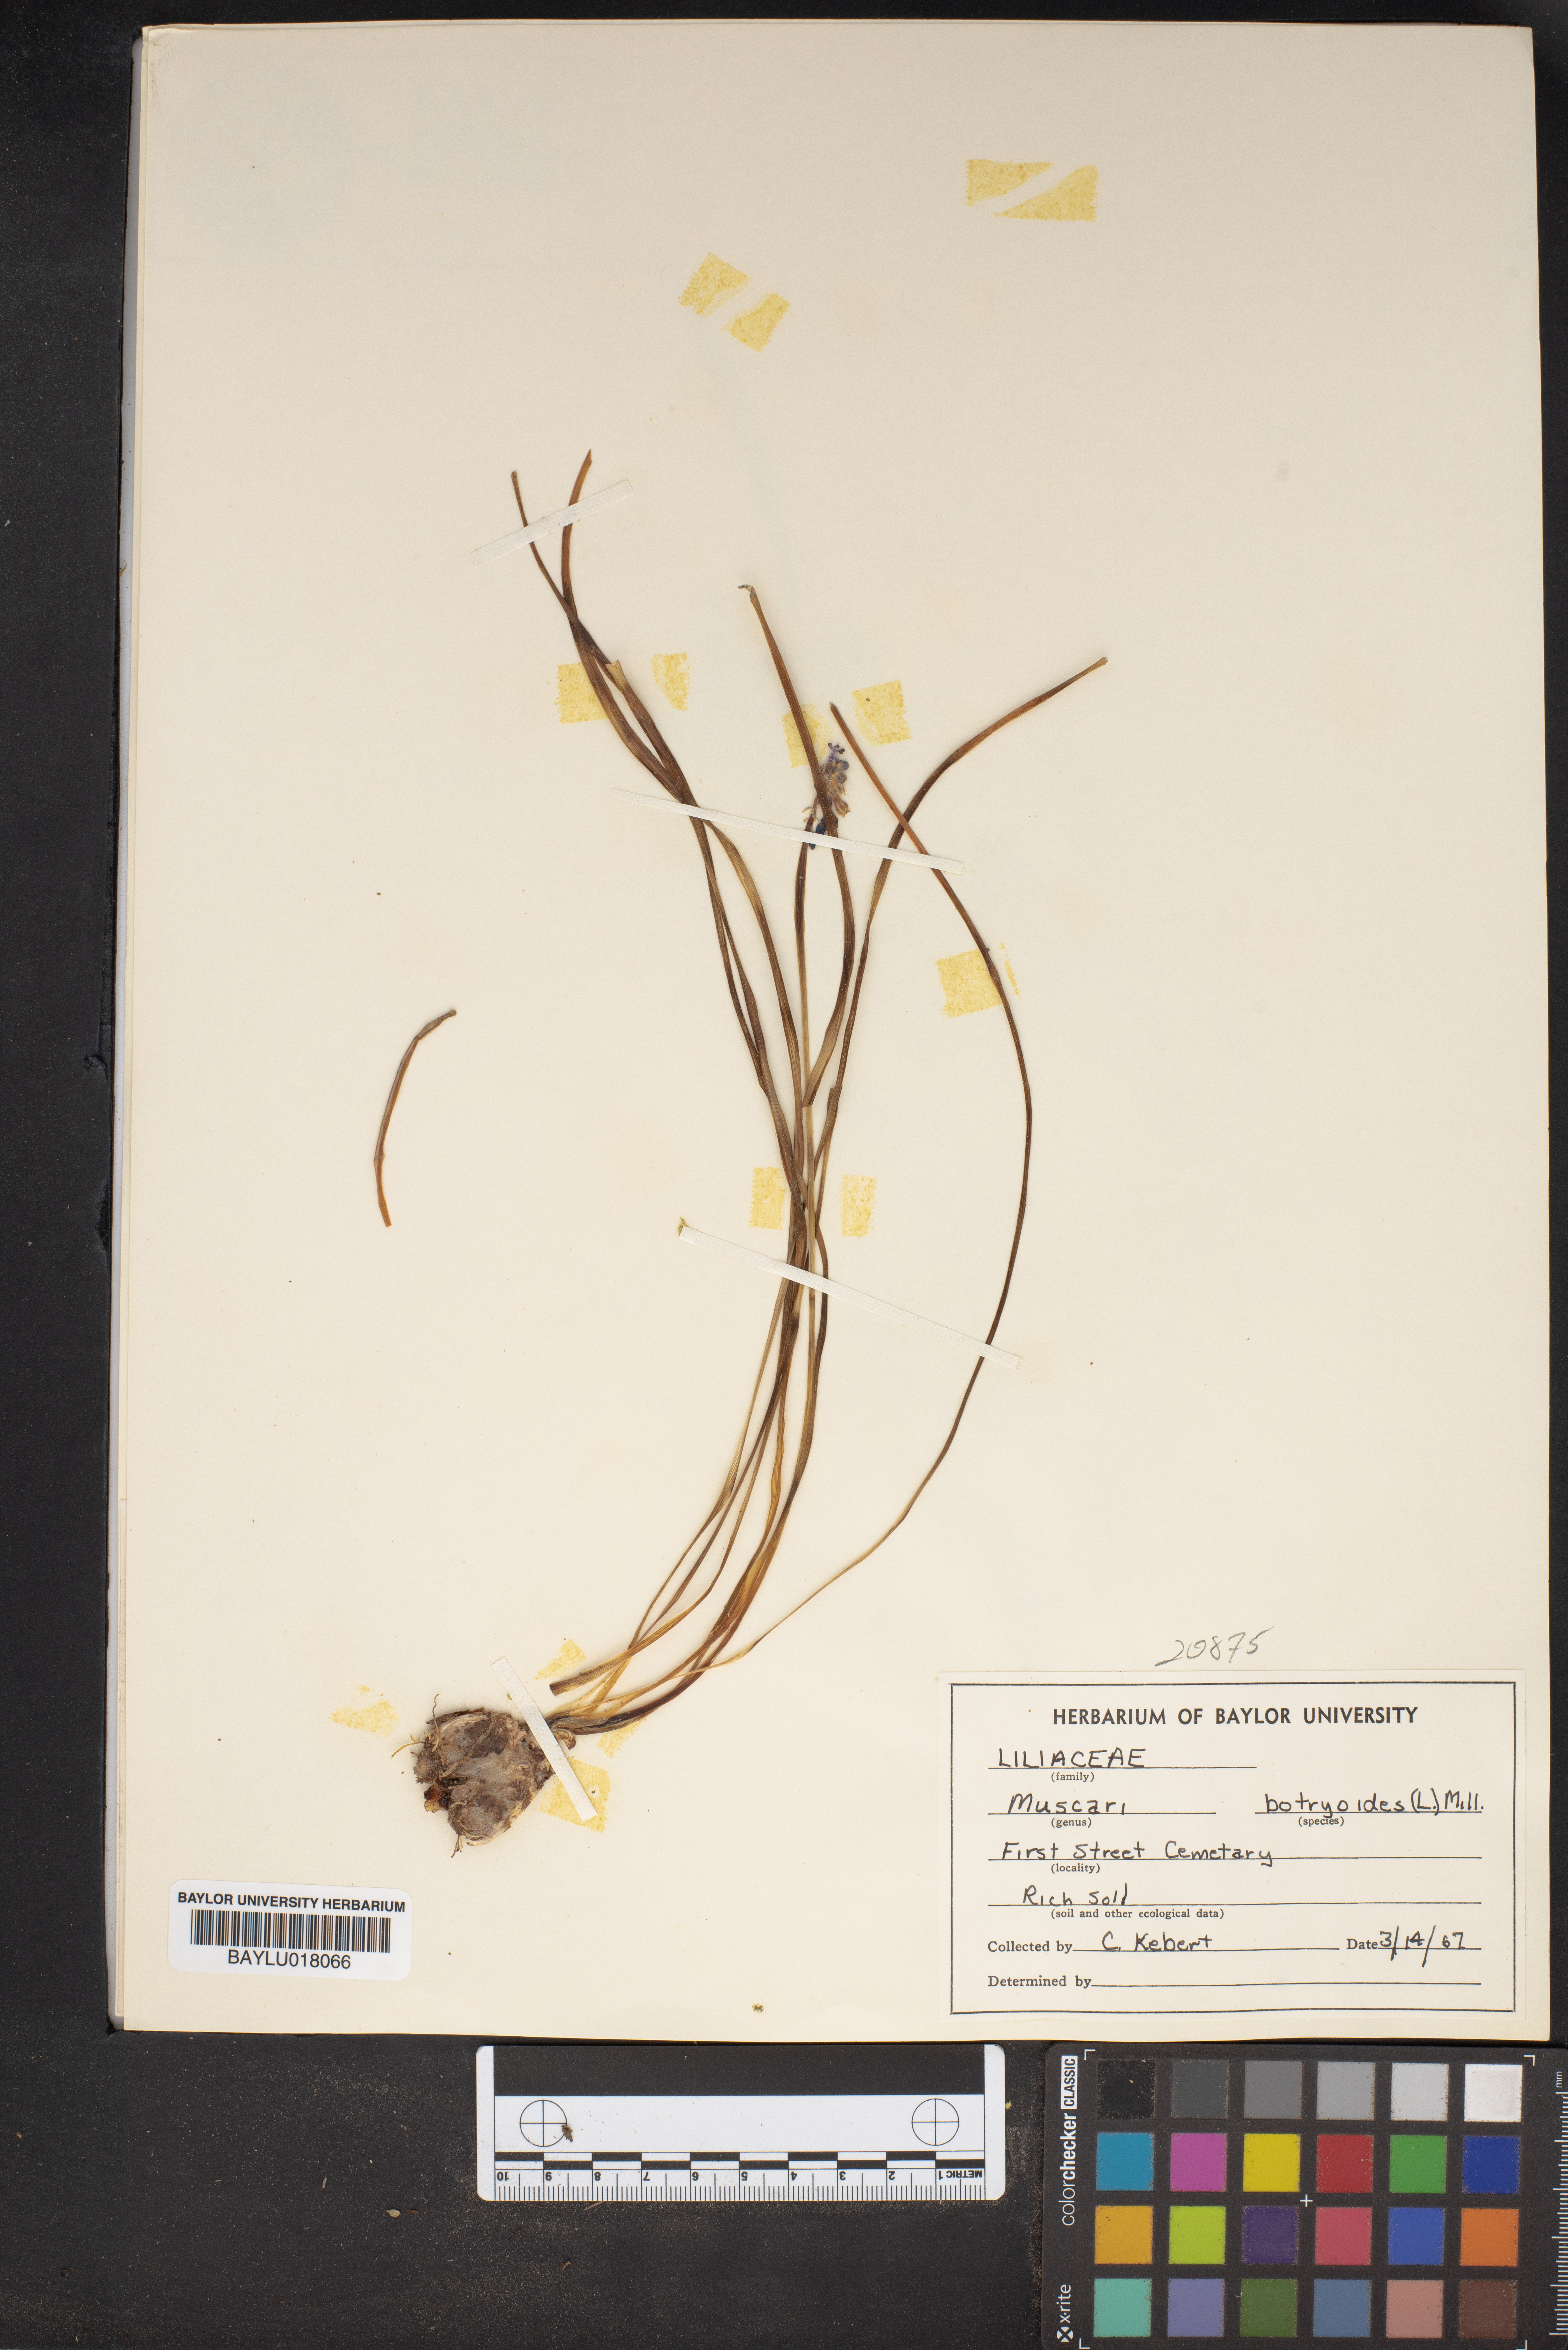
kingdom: Plantae
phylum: Tracheophyta
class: Liliopsida
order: Asparagales
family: Asparagaceae
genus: Muscari
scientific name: Muscari botryoides
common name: Compact grape-hyacinth
